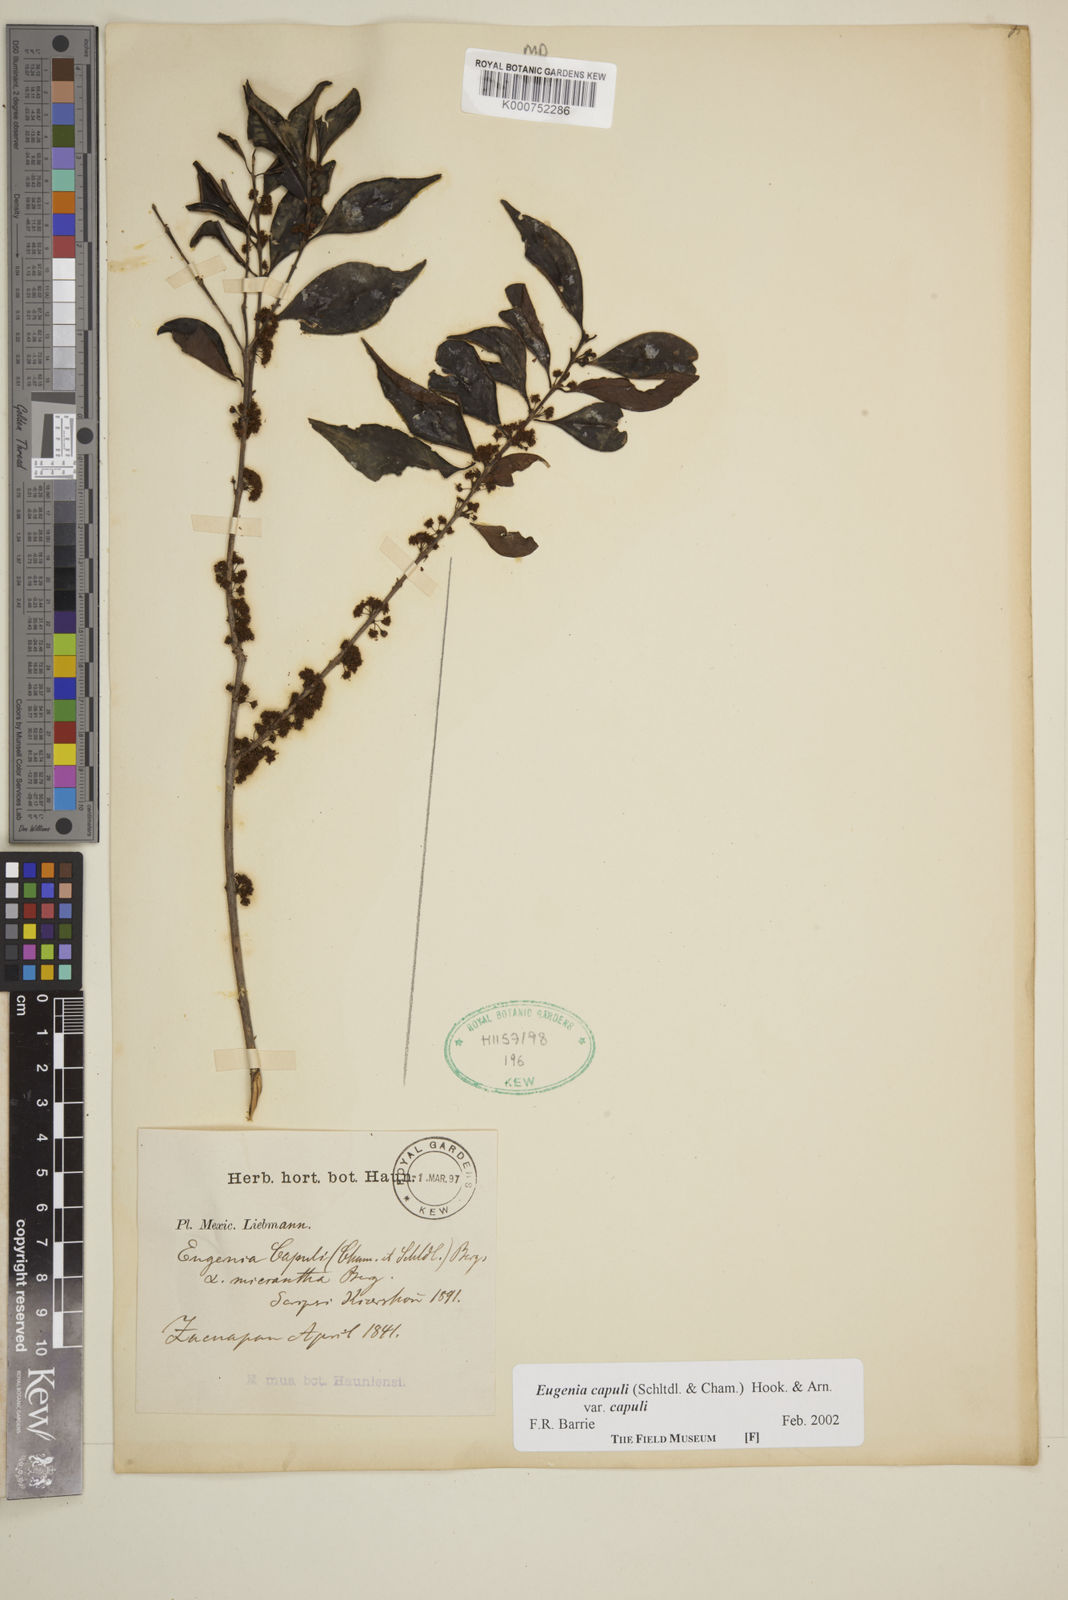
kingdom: Plantae
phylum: Tracheophyta
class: Magnoliopsida
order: Myrtales
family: Myrtaceae
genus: Eugenia
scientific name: Eugenia capuli
